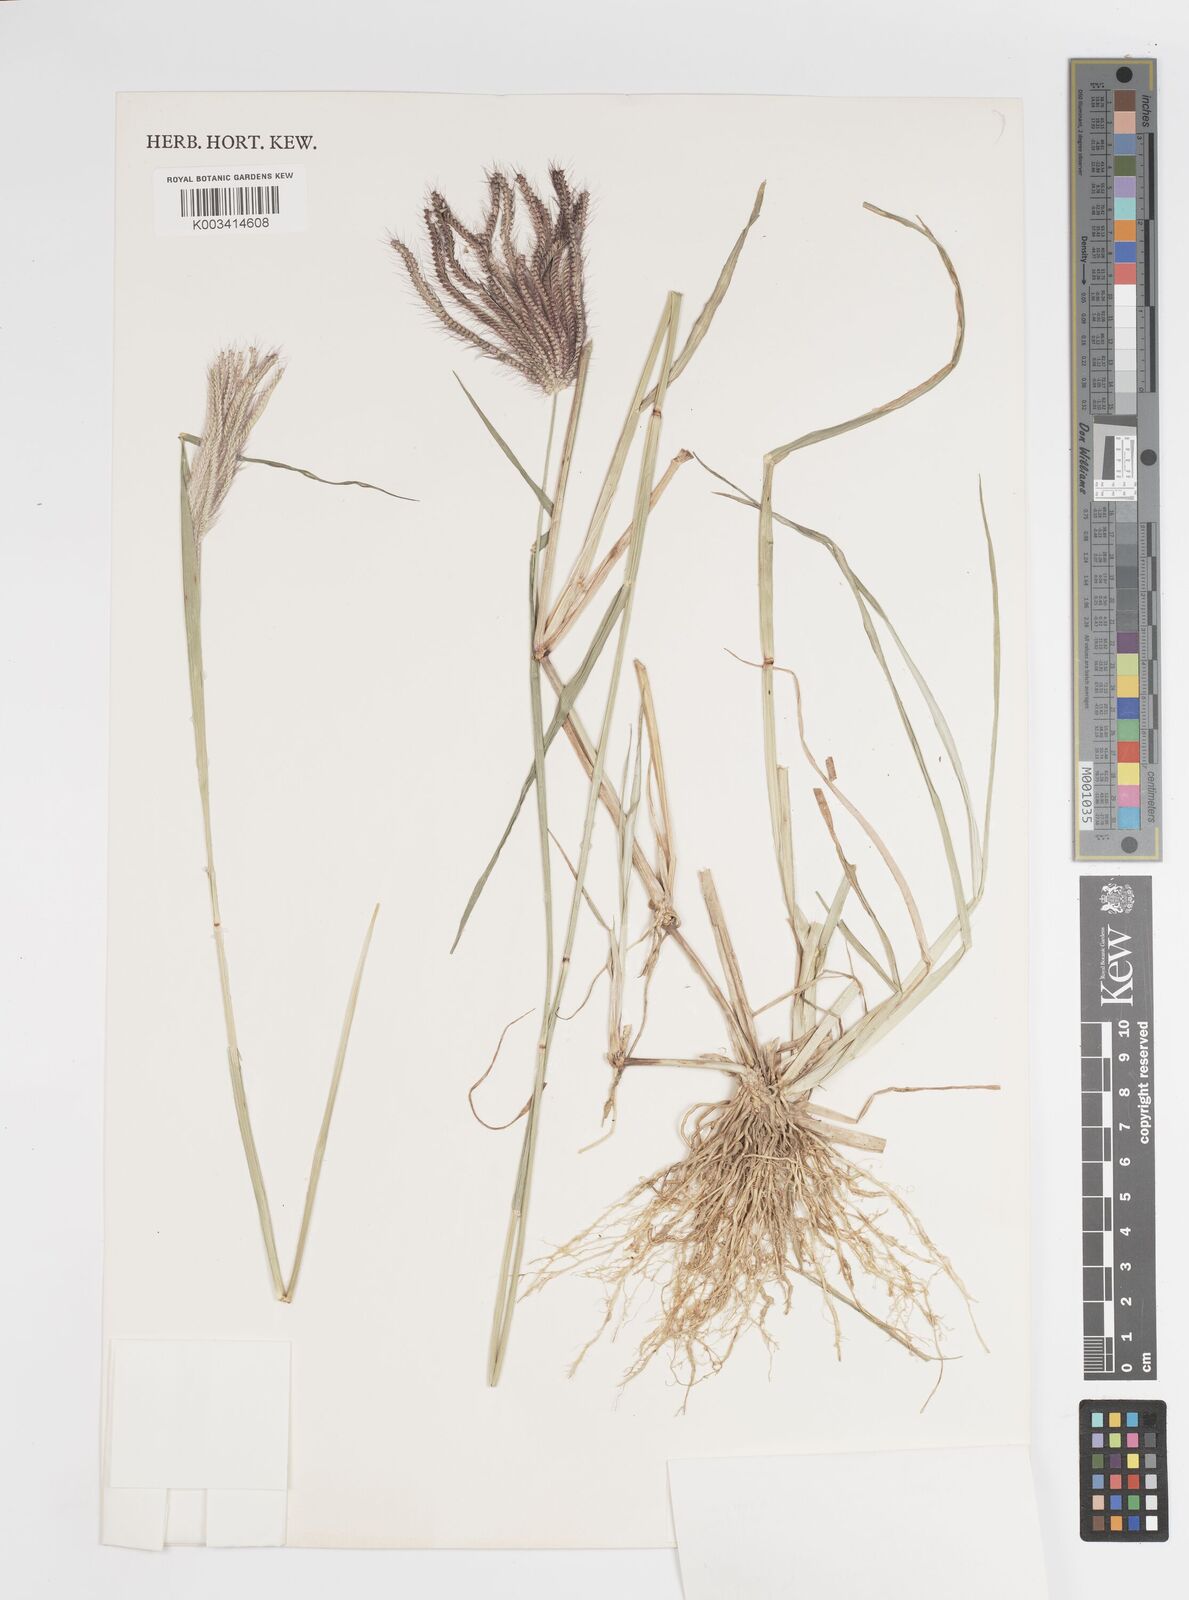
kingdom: Plantae
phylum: Tracheophyta
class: Liliopsida
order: Poales
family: Poaceae
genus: Stapfochloa
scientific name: Stapfochloa elata
